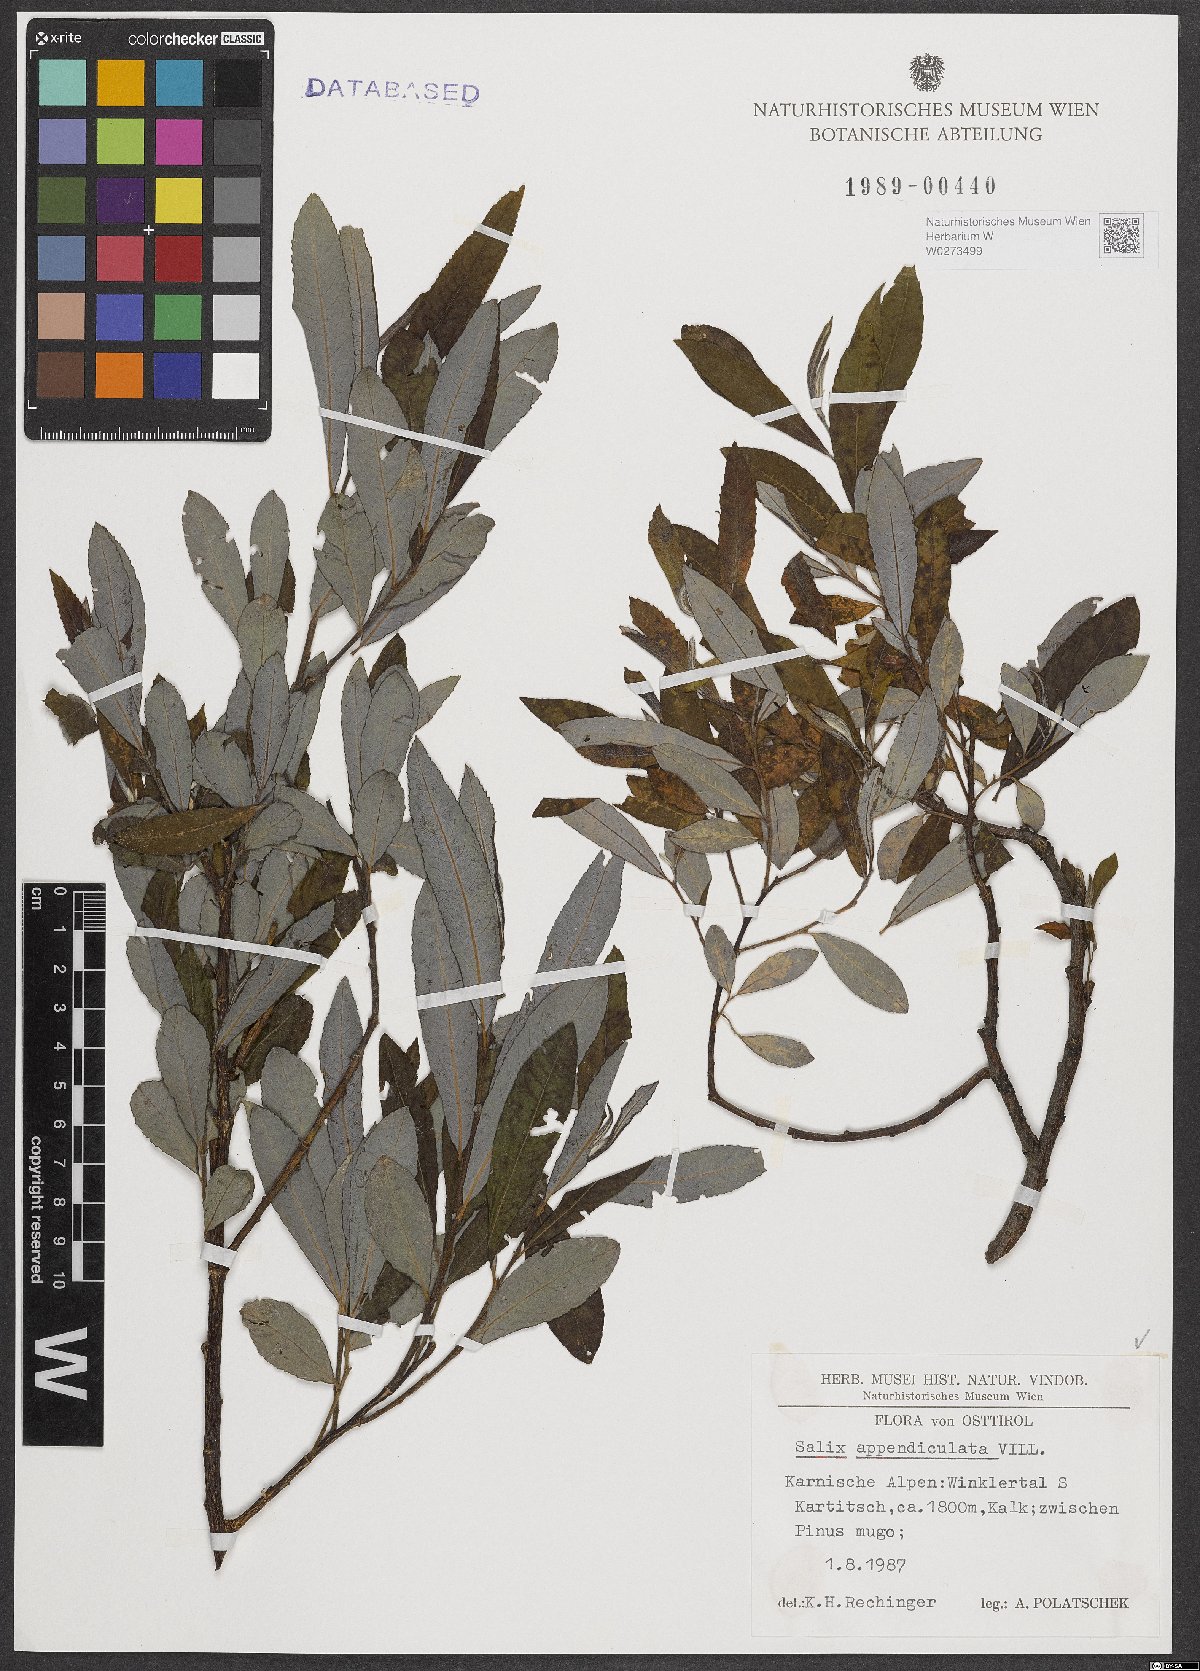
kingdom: Plantae
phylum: Tracheophyta
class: Magnoliopsida
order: Malpighiales
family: Salicaceae
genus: Salix
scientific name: Salix appendiculata
